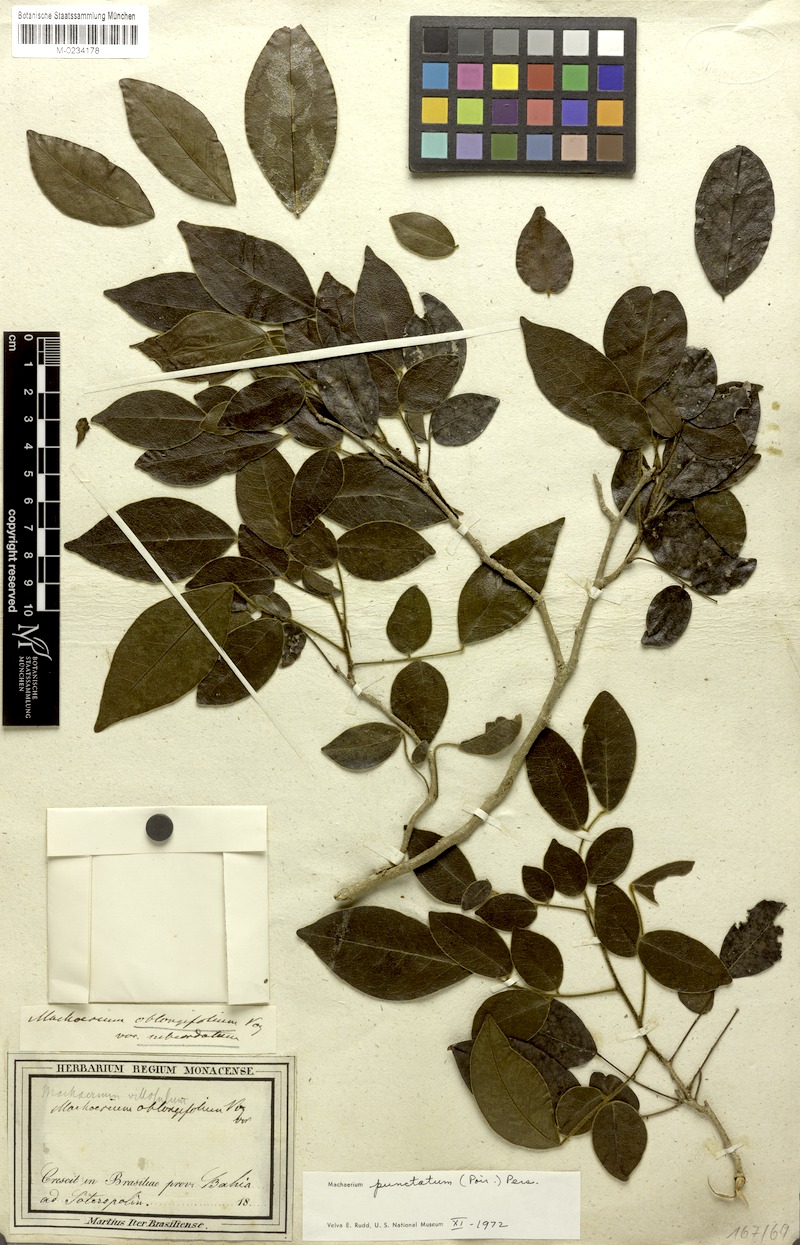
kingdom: Plantae
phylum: Tracheophyta
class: Magnoliopsida
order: Fabales
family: Fabaceae
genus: Machaerium
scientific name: Machaerium punctatum
